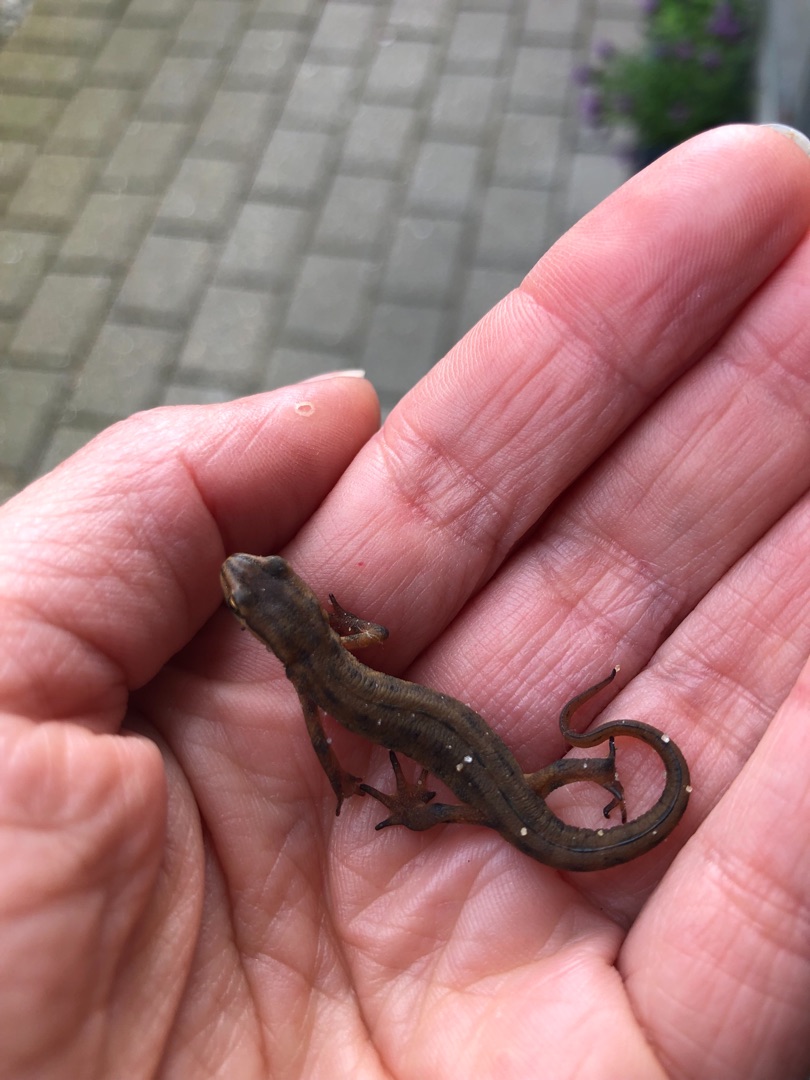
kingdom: Animalia
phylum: Chordata
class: Amphibia
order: Caudata
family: Salamandridae
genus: Lissotriton
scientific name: Lissotriton vulgaris
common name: Lille vandsalamander
